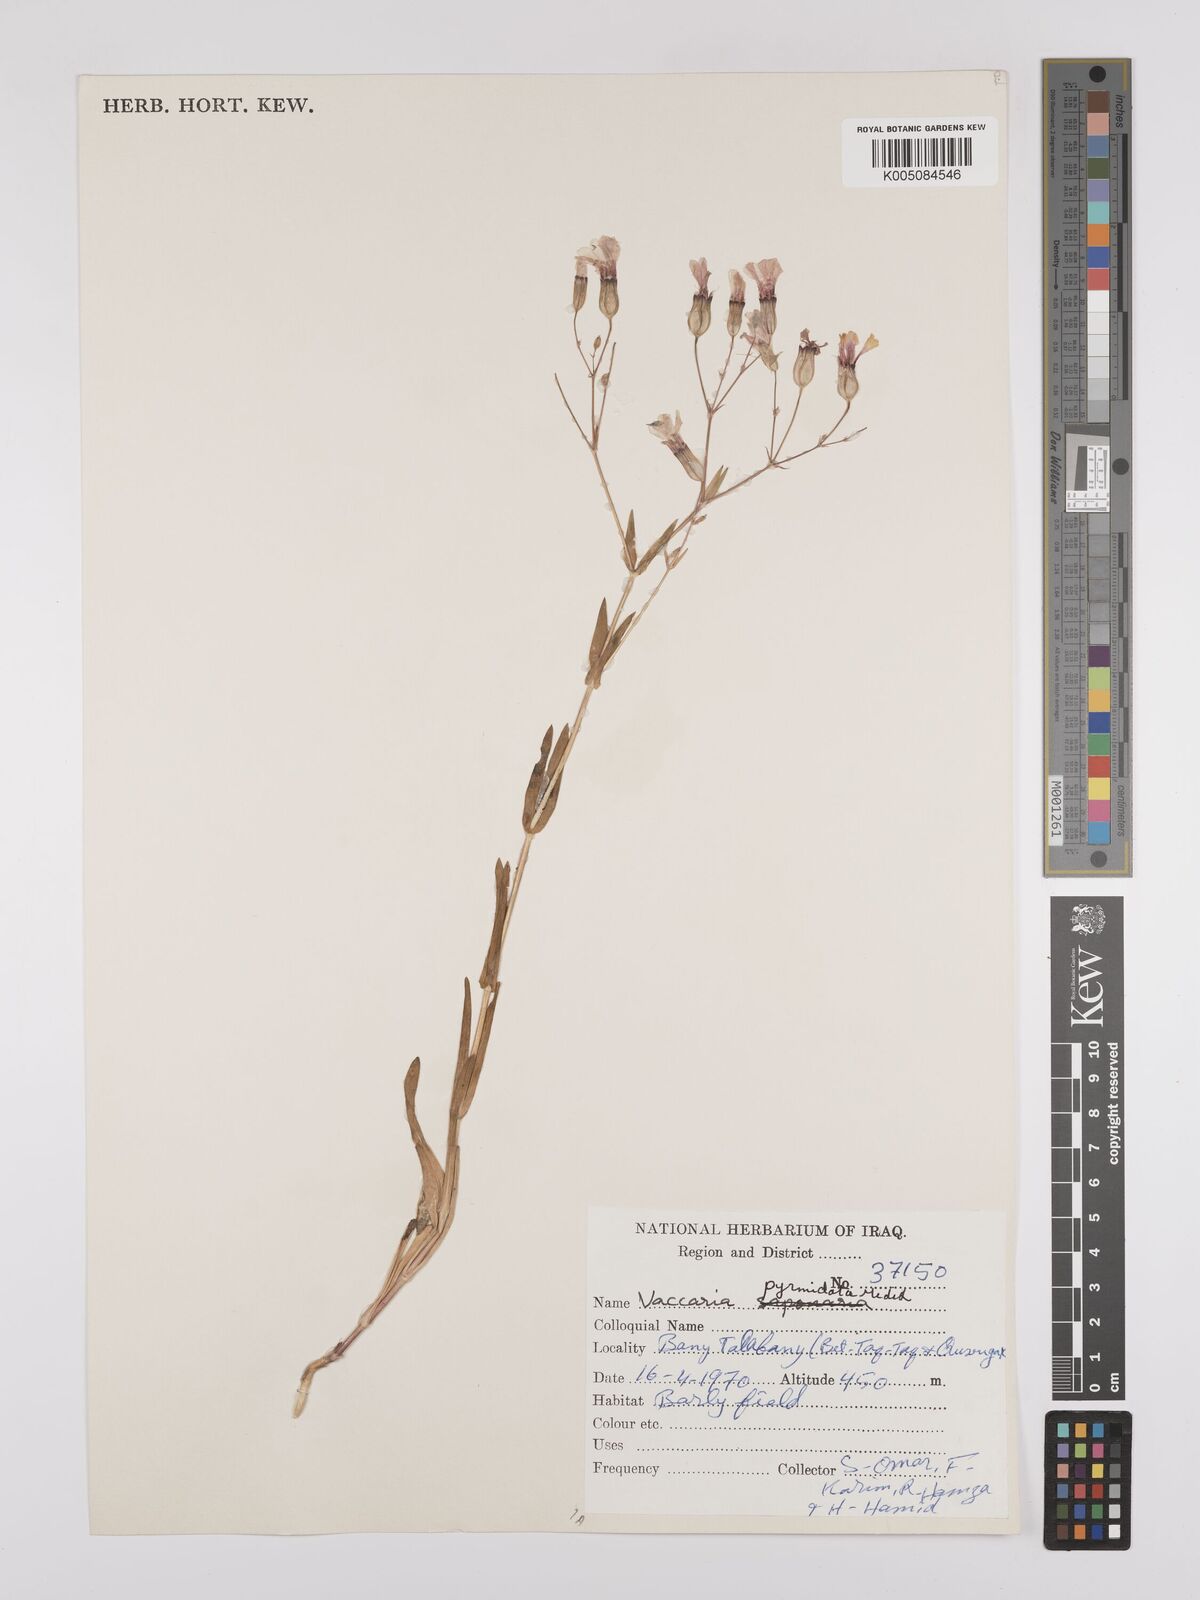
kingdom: Plantae
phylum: Tracheophyta
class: Magnoliopsida
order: Caryophyllales
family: Caryophyllaceae
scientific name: Caryophyllaceae
